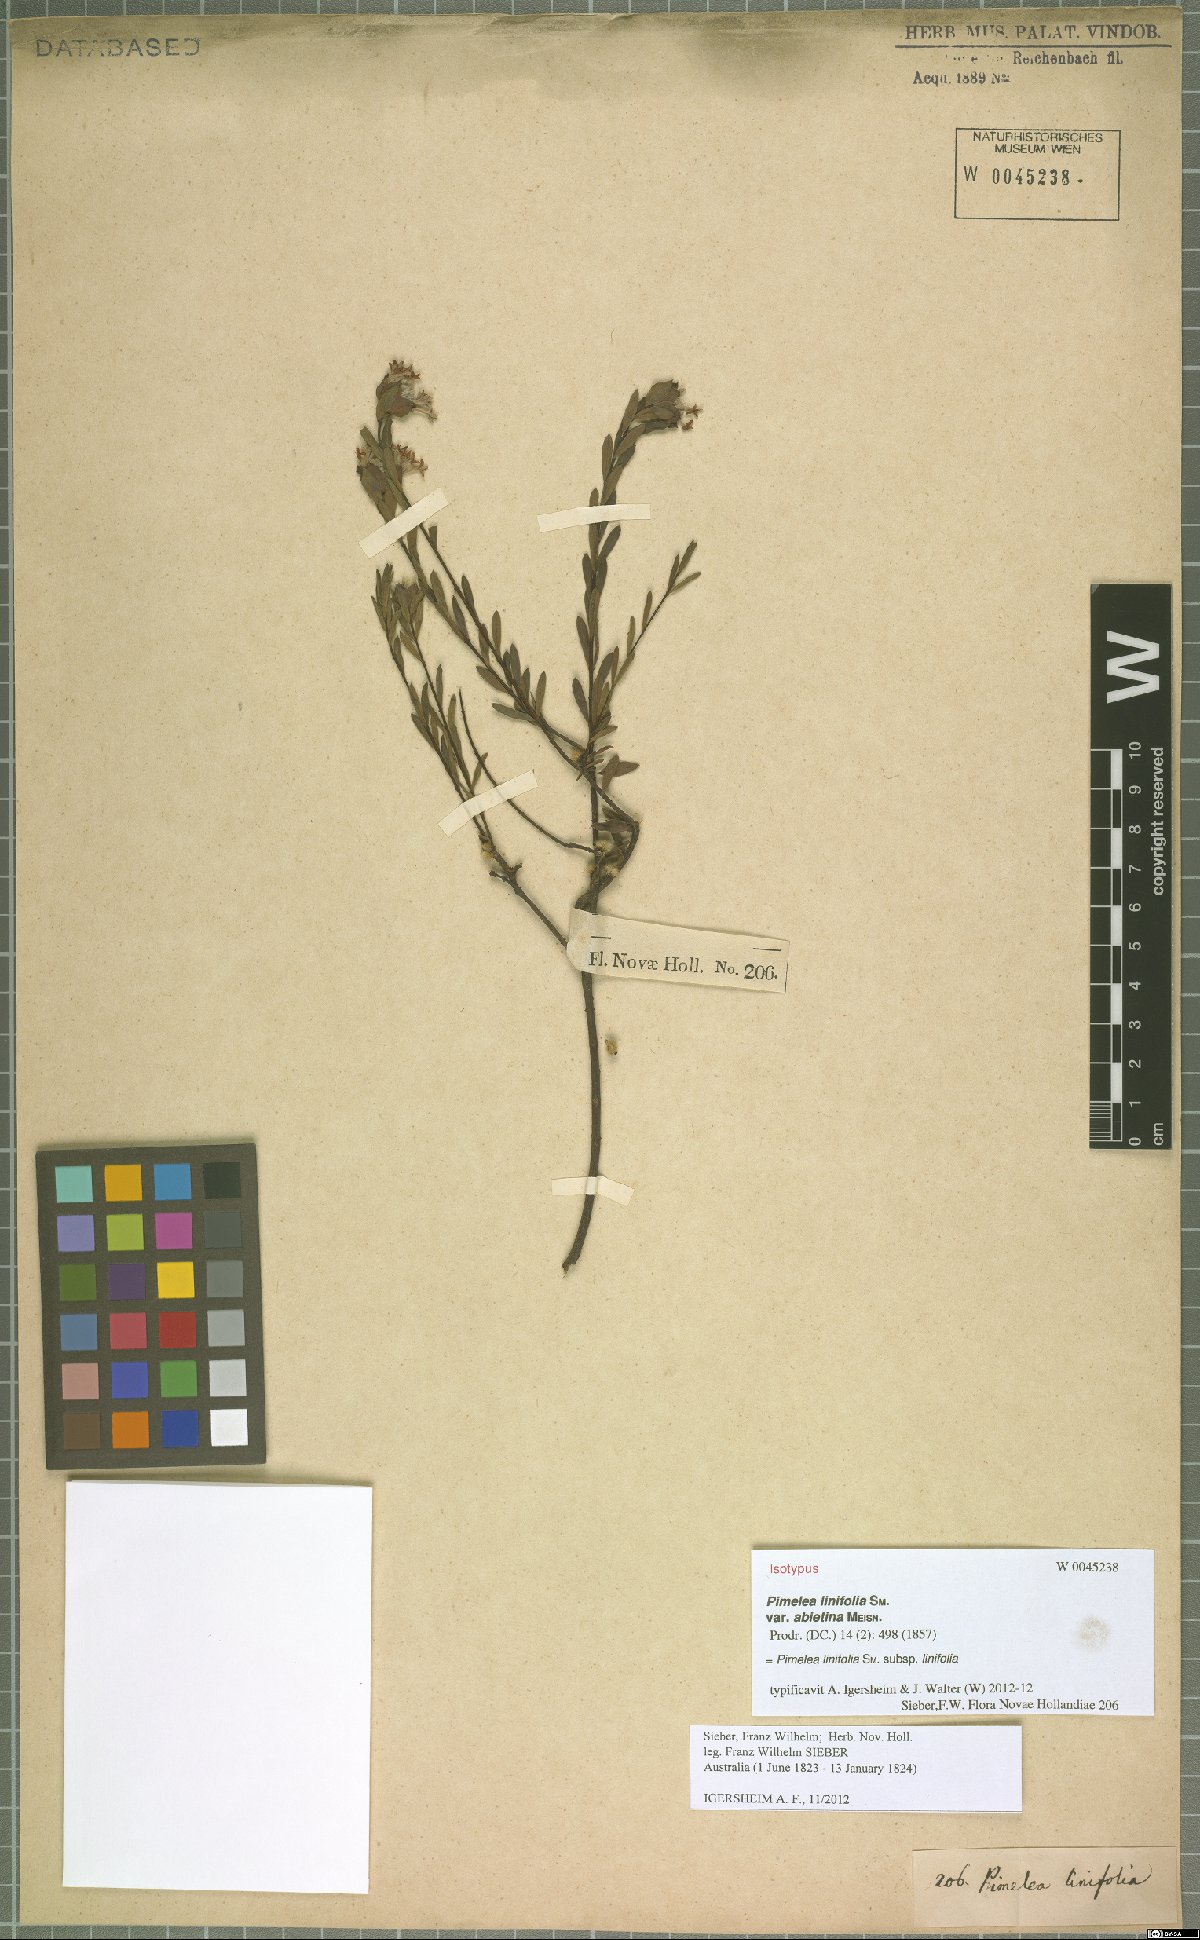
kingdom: Plantae
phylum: Tracheophyta
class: Magnoliopsida
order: Malvales
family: Thymelaeaceae
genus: Pimelea
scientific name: Pimelea linifolia
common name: Queen-of-the-bush
